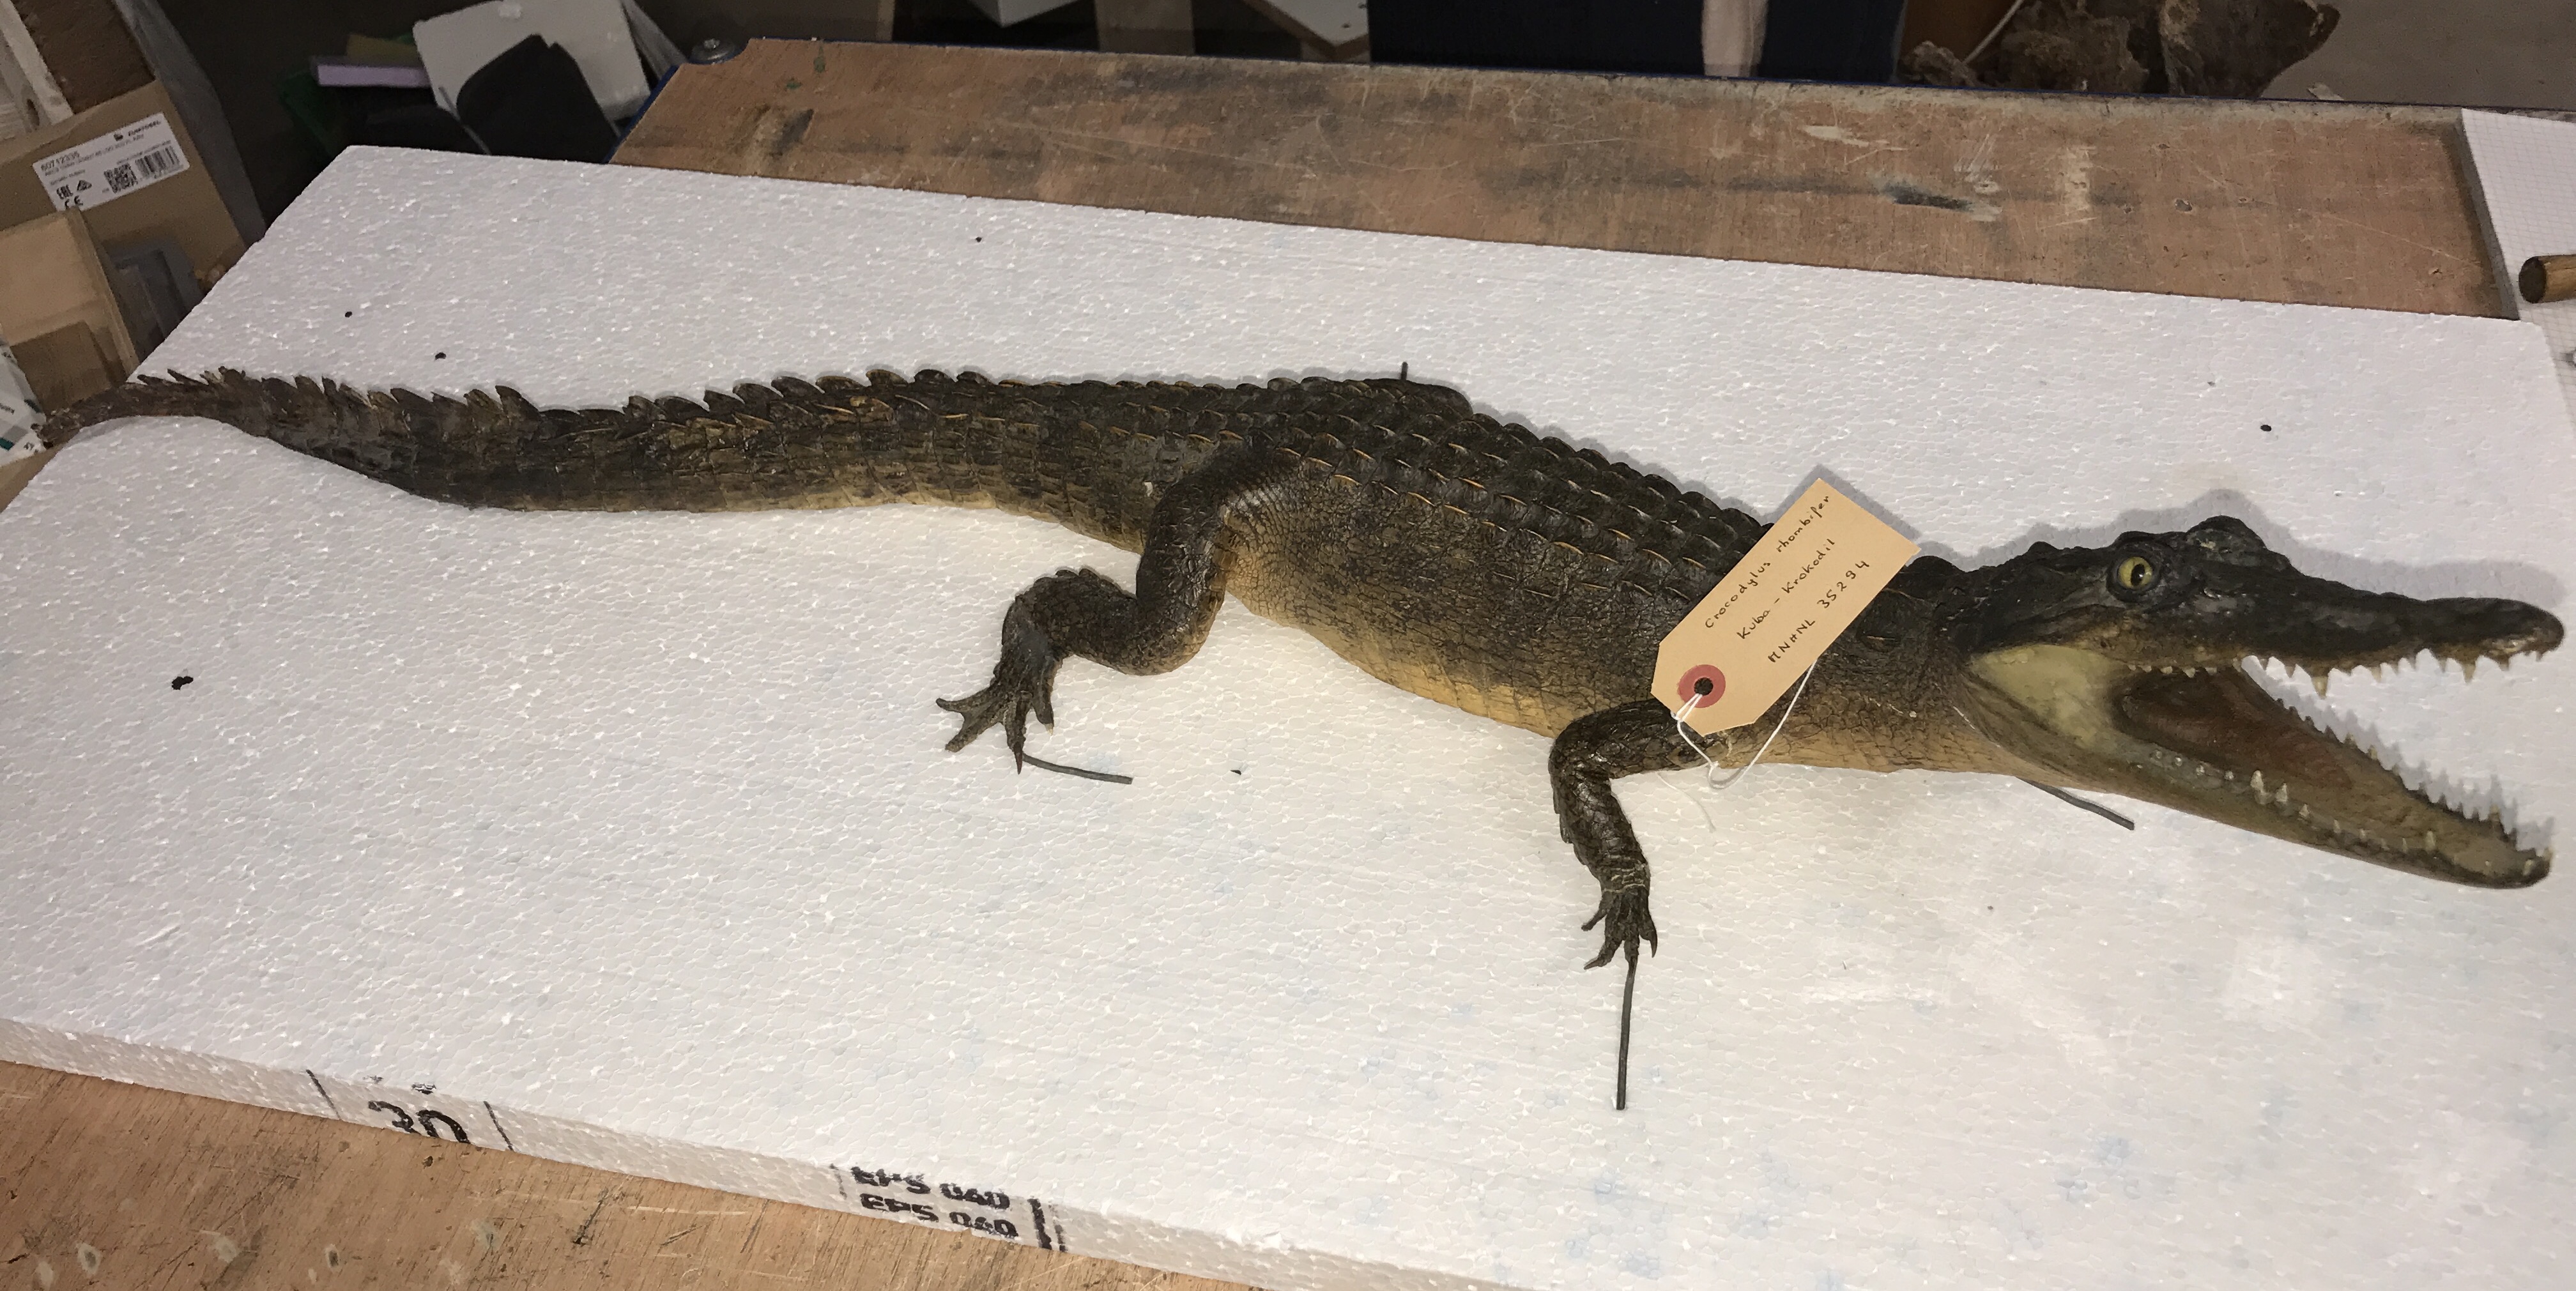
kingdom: Animalia
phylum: Chordata
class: Crocodylia
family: Crocodylidae
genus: Crocodylus
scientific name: Crocodylus rhombifer
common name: Cuban crocodile
